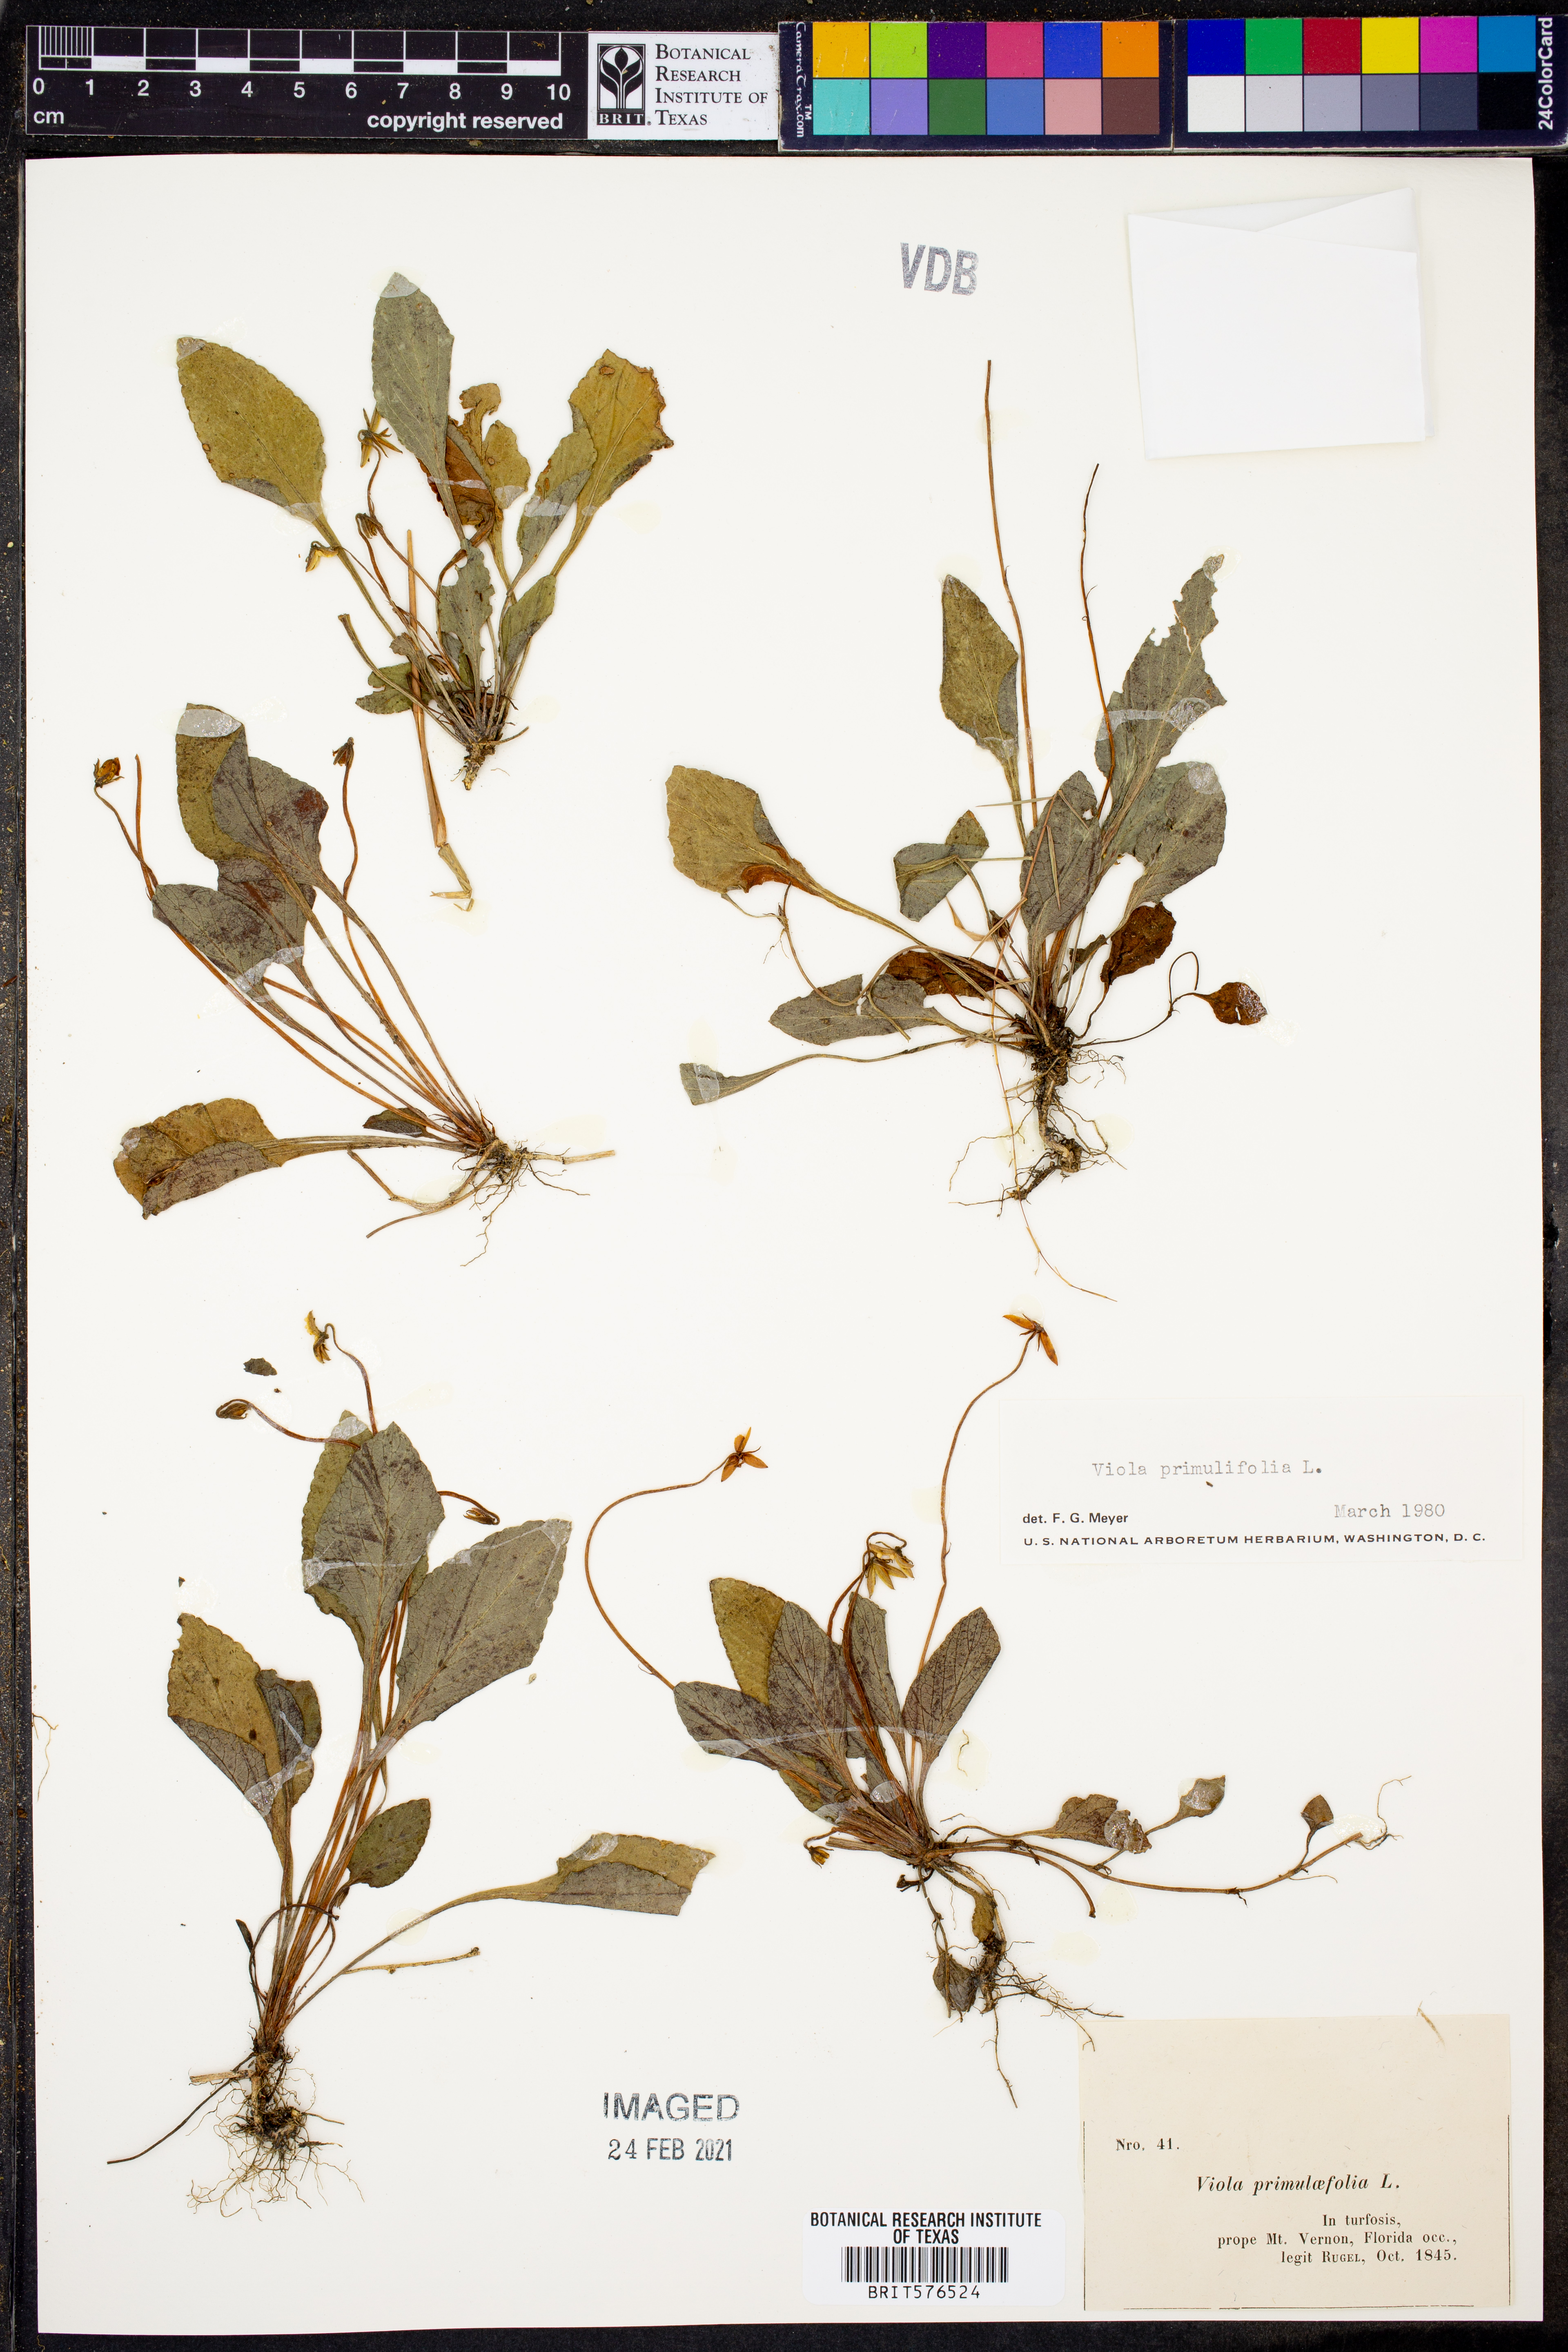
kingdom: Plantae
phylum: Tracheophyta
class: Magnoliopsida
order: Malpighiales
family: Violaceae
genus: Viola
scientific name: Viola primulifolia
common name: Primrose-leaf violet
